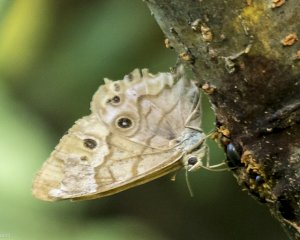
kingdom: Animalia
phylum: Arthropoda
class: Insecta
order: Lepidoptera
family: Nymphalidae
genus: Lethe
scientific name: Lethe eurydice
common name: Eyed Brown
